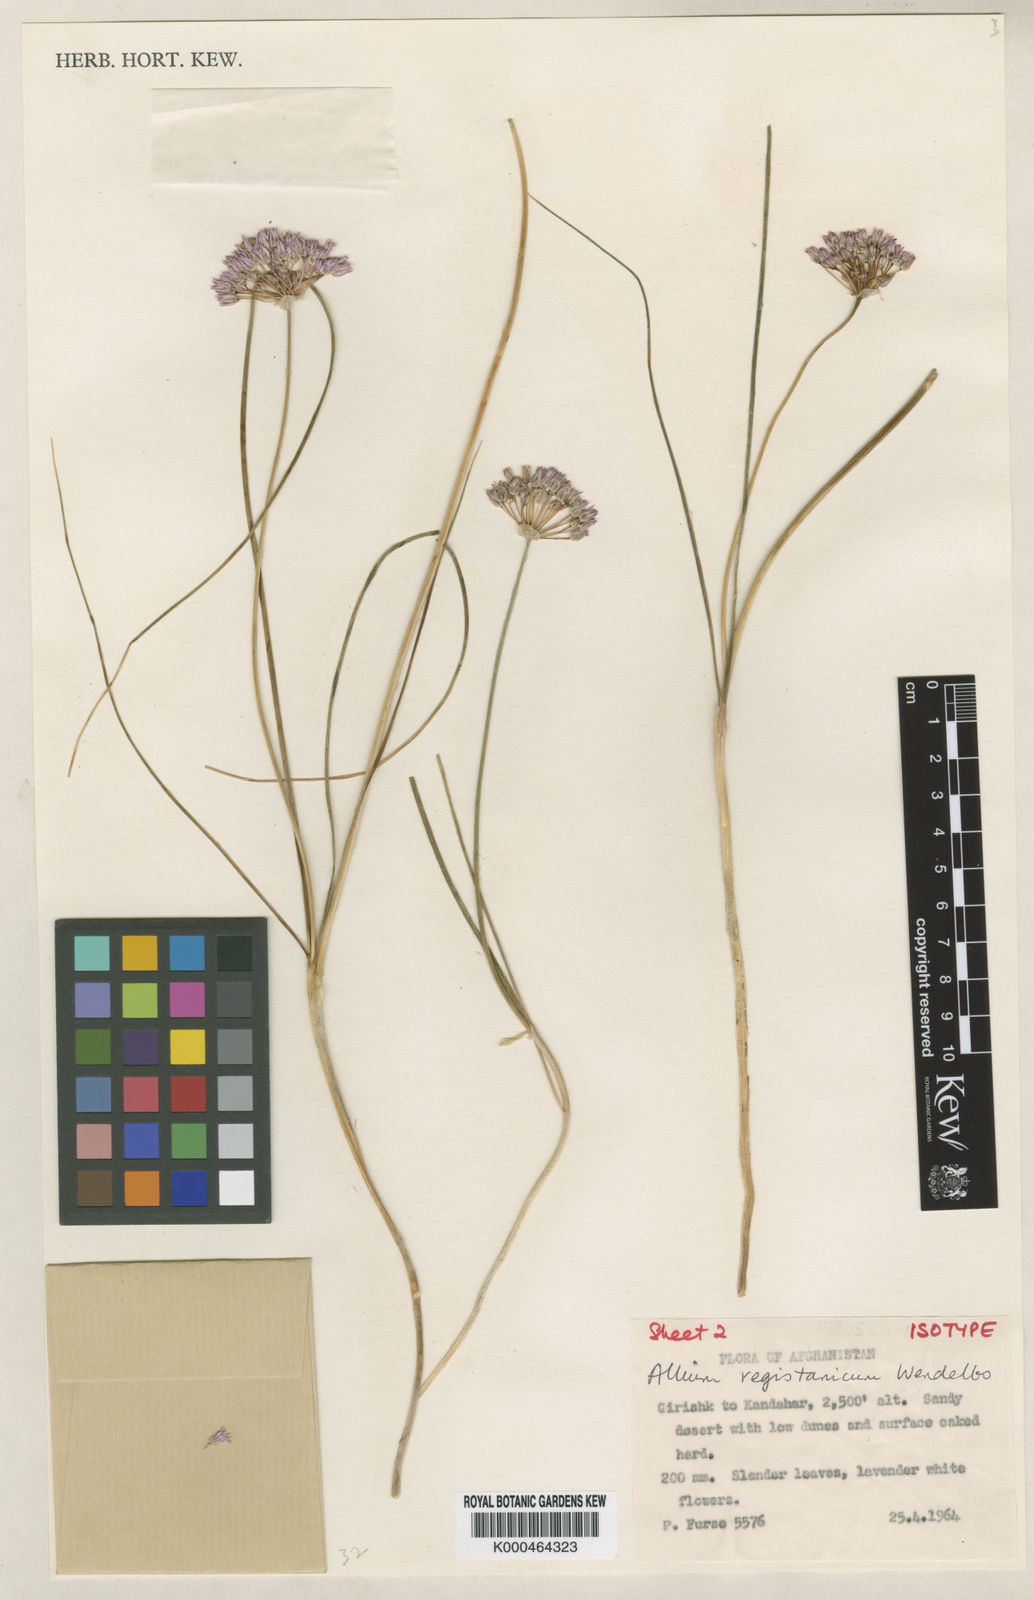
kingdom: Plantae
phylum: Tracheophyta
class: Liliopsida
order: Asparagales
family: Amaryllidaceae
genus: Allium
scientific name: Allium registanicum
